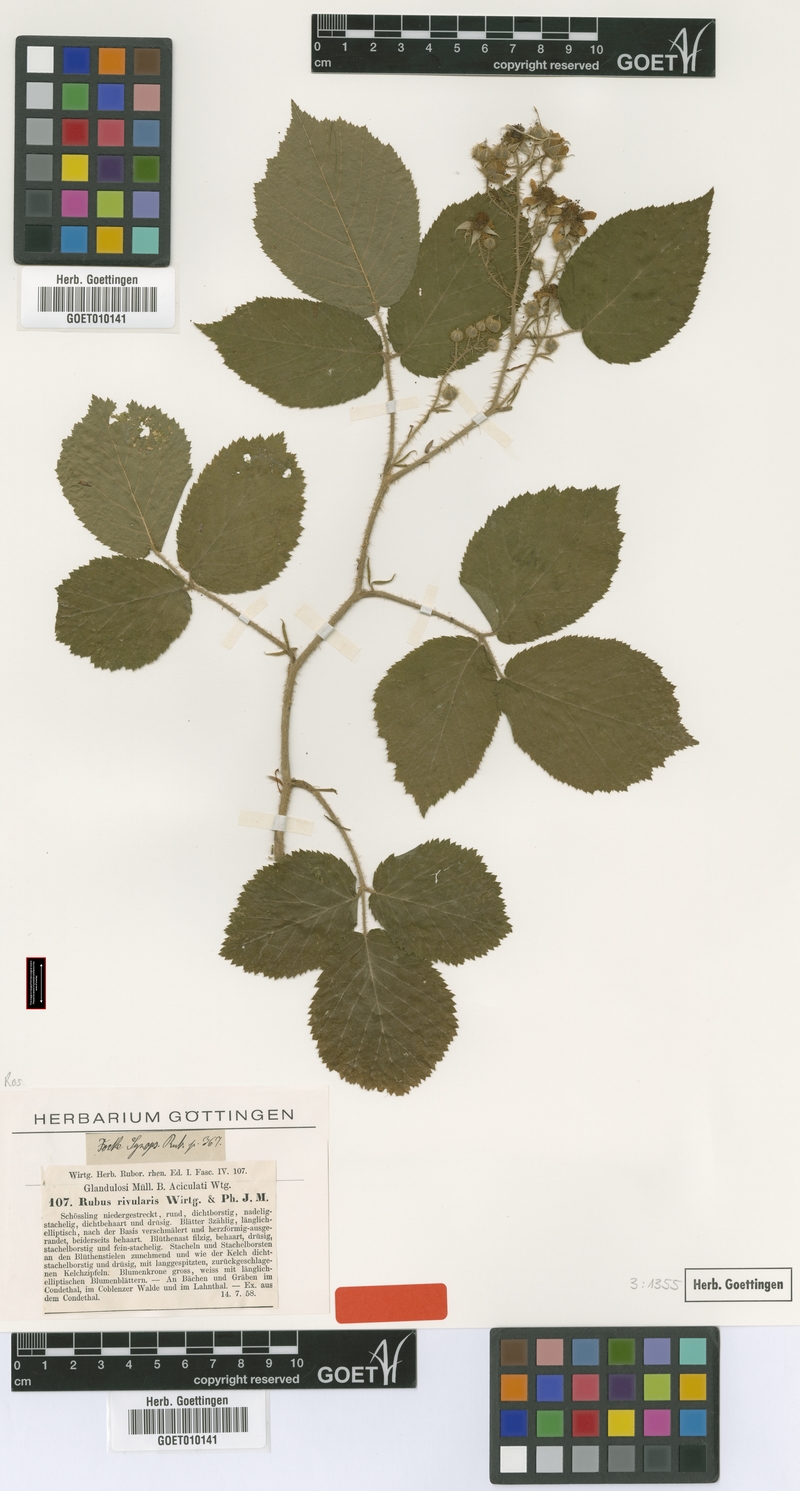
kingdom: Plantae
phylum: Tracheophyta
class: Magnoliopsida
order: Rosales
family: Rosaceae
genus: Rubus
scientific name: Rubus rivularis
